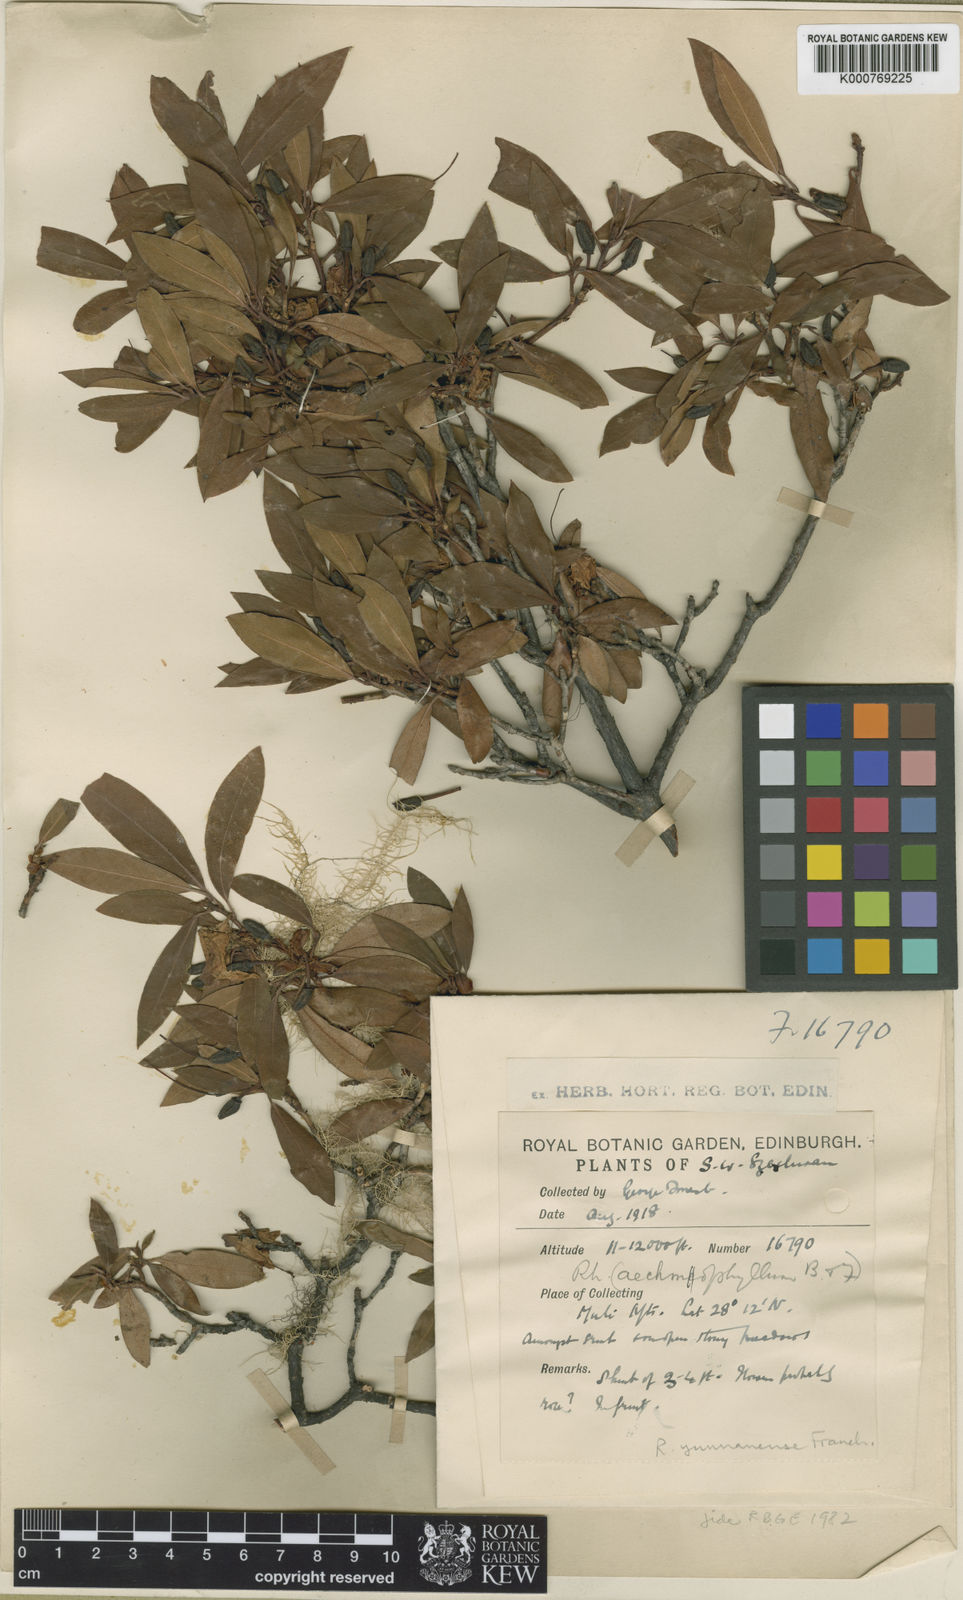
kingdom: Plantae
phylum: Tracheophyta
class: Magnoliopsida
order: Ericales
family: Ericaceae
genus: Rhododendron
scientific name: Rhododendron yunnanense
